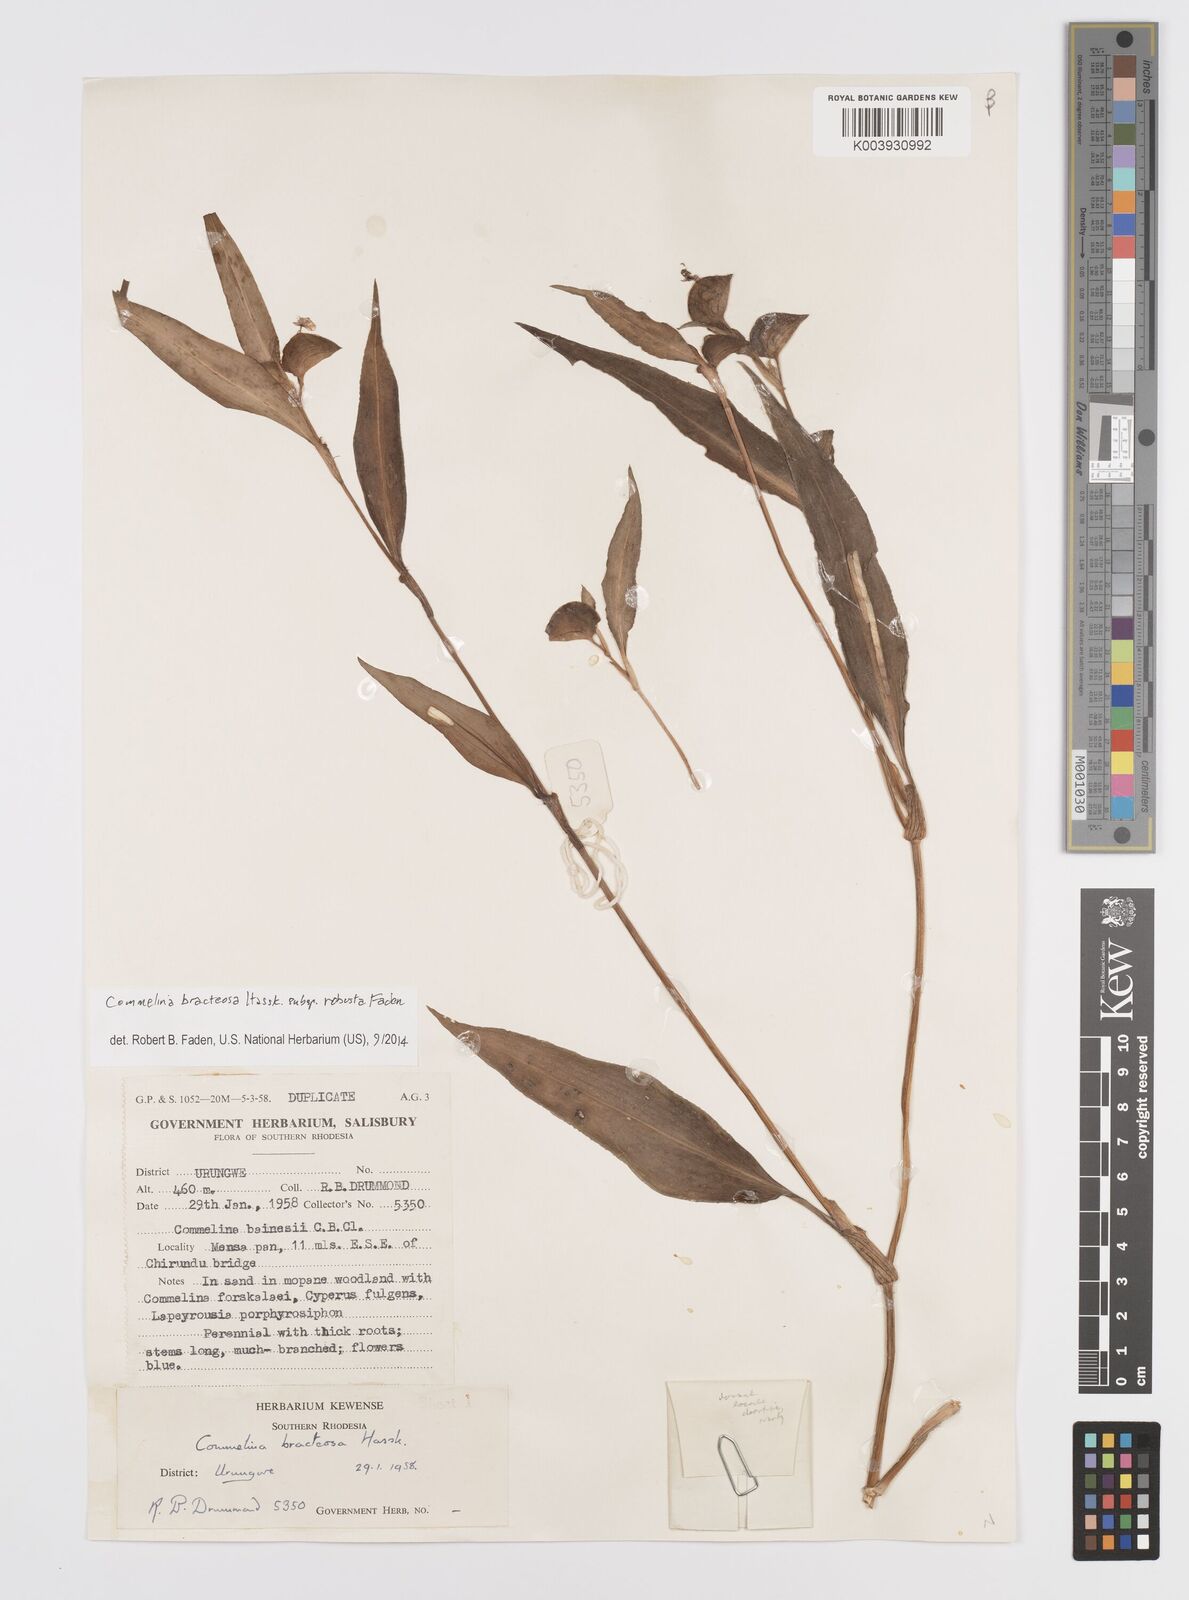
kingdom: Plantae
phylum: Tracheophyta
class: Liliopsida
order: Commelinales
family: Commelinaceae
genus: Commelina
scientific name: Commelina bracteosa
